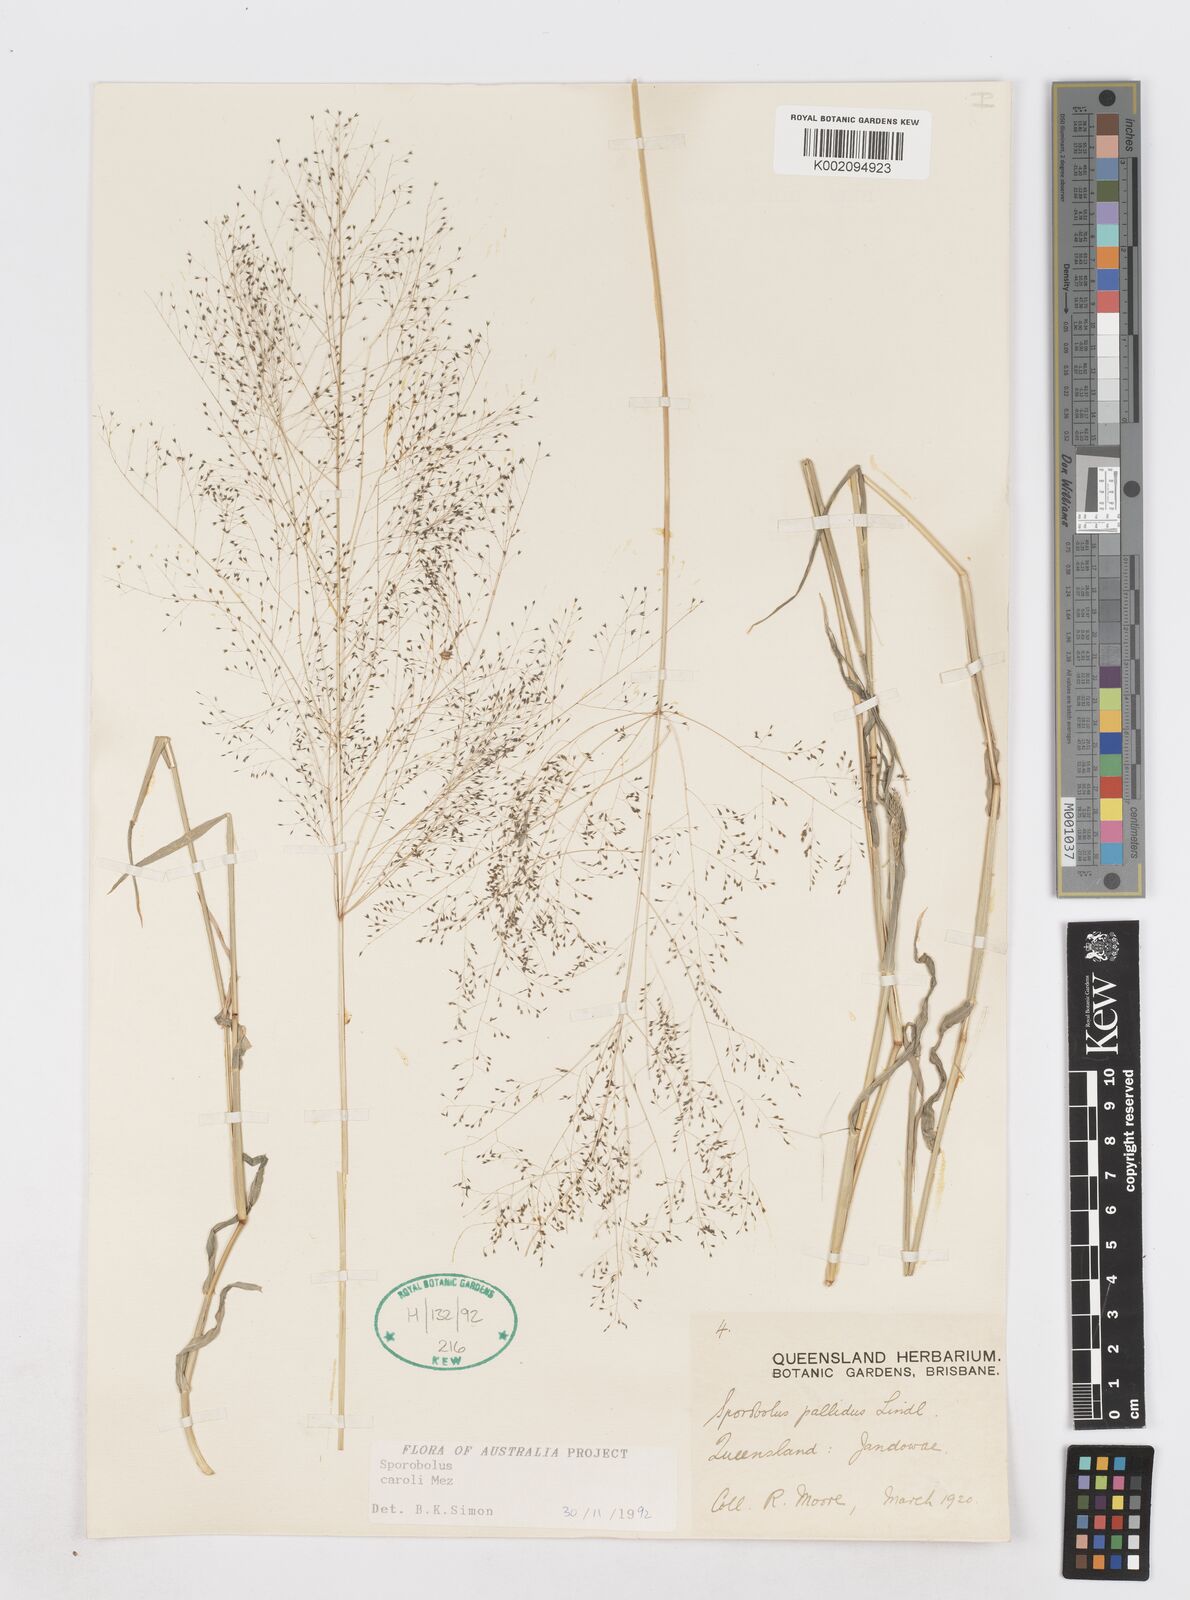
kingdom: Plantae
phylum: Tracheophyta
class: Liliopsida
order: Poales
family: Poaceae
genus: Sporobolus
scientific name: Sporobolus caroli
